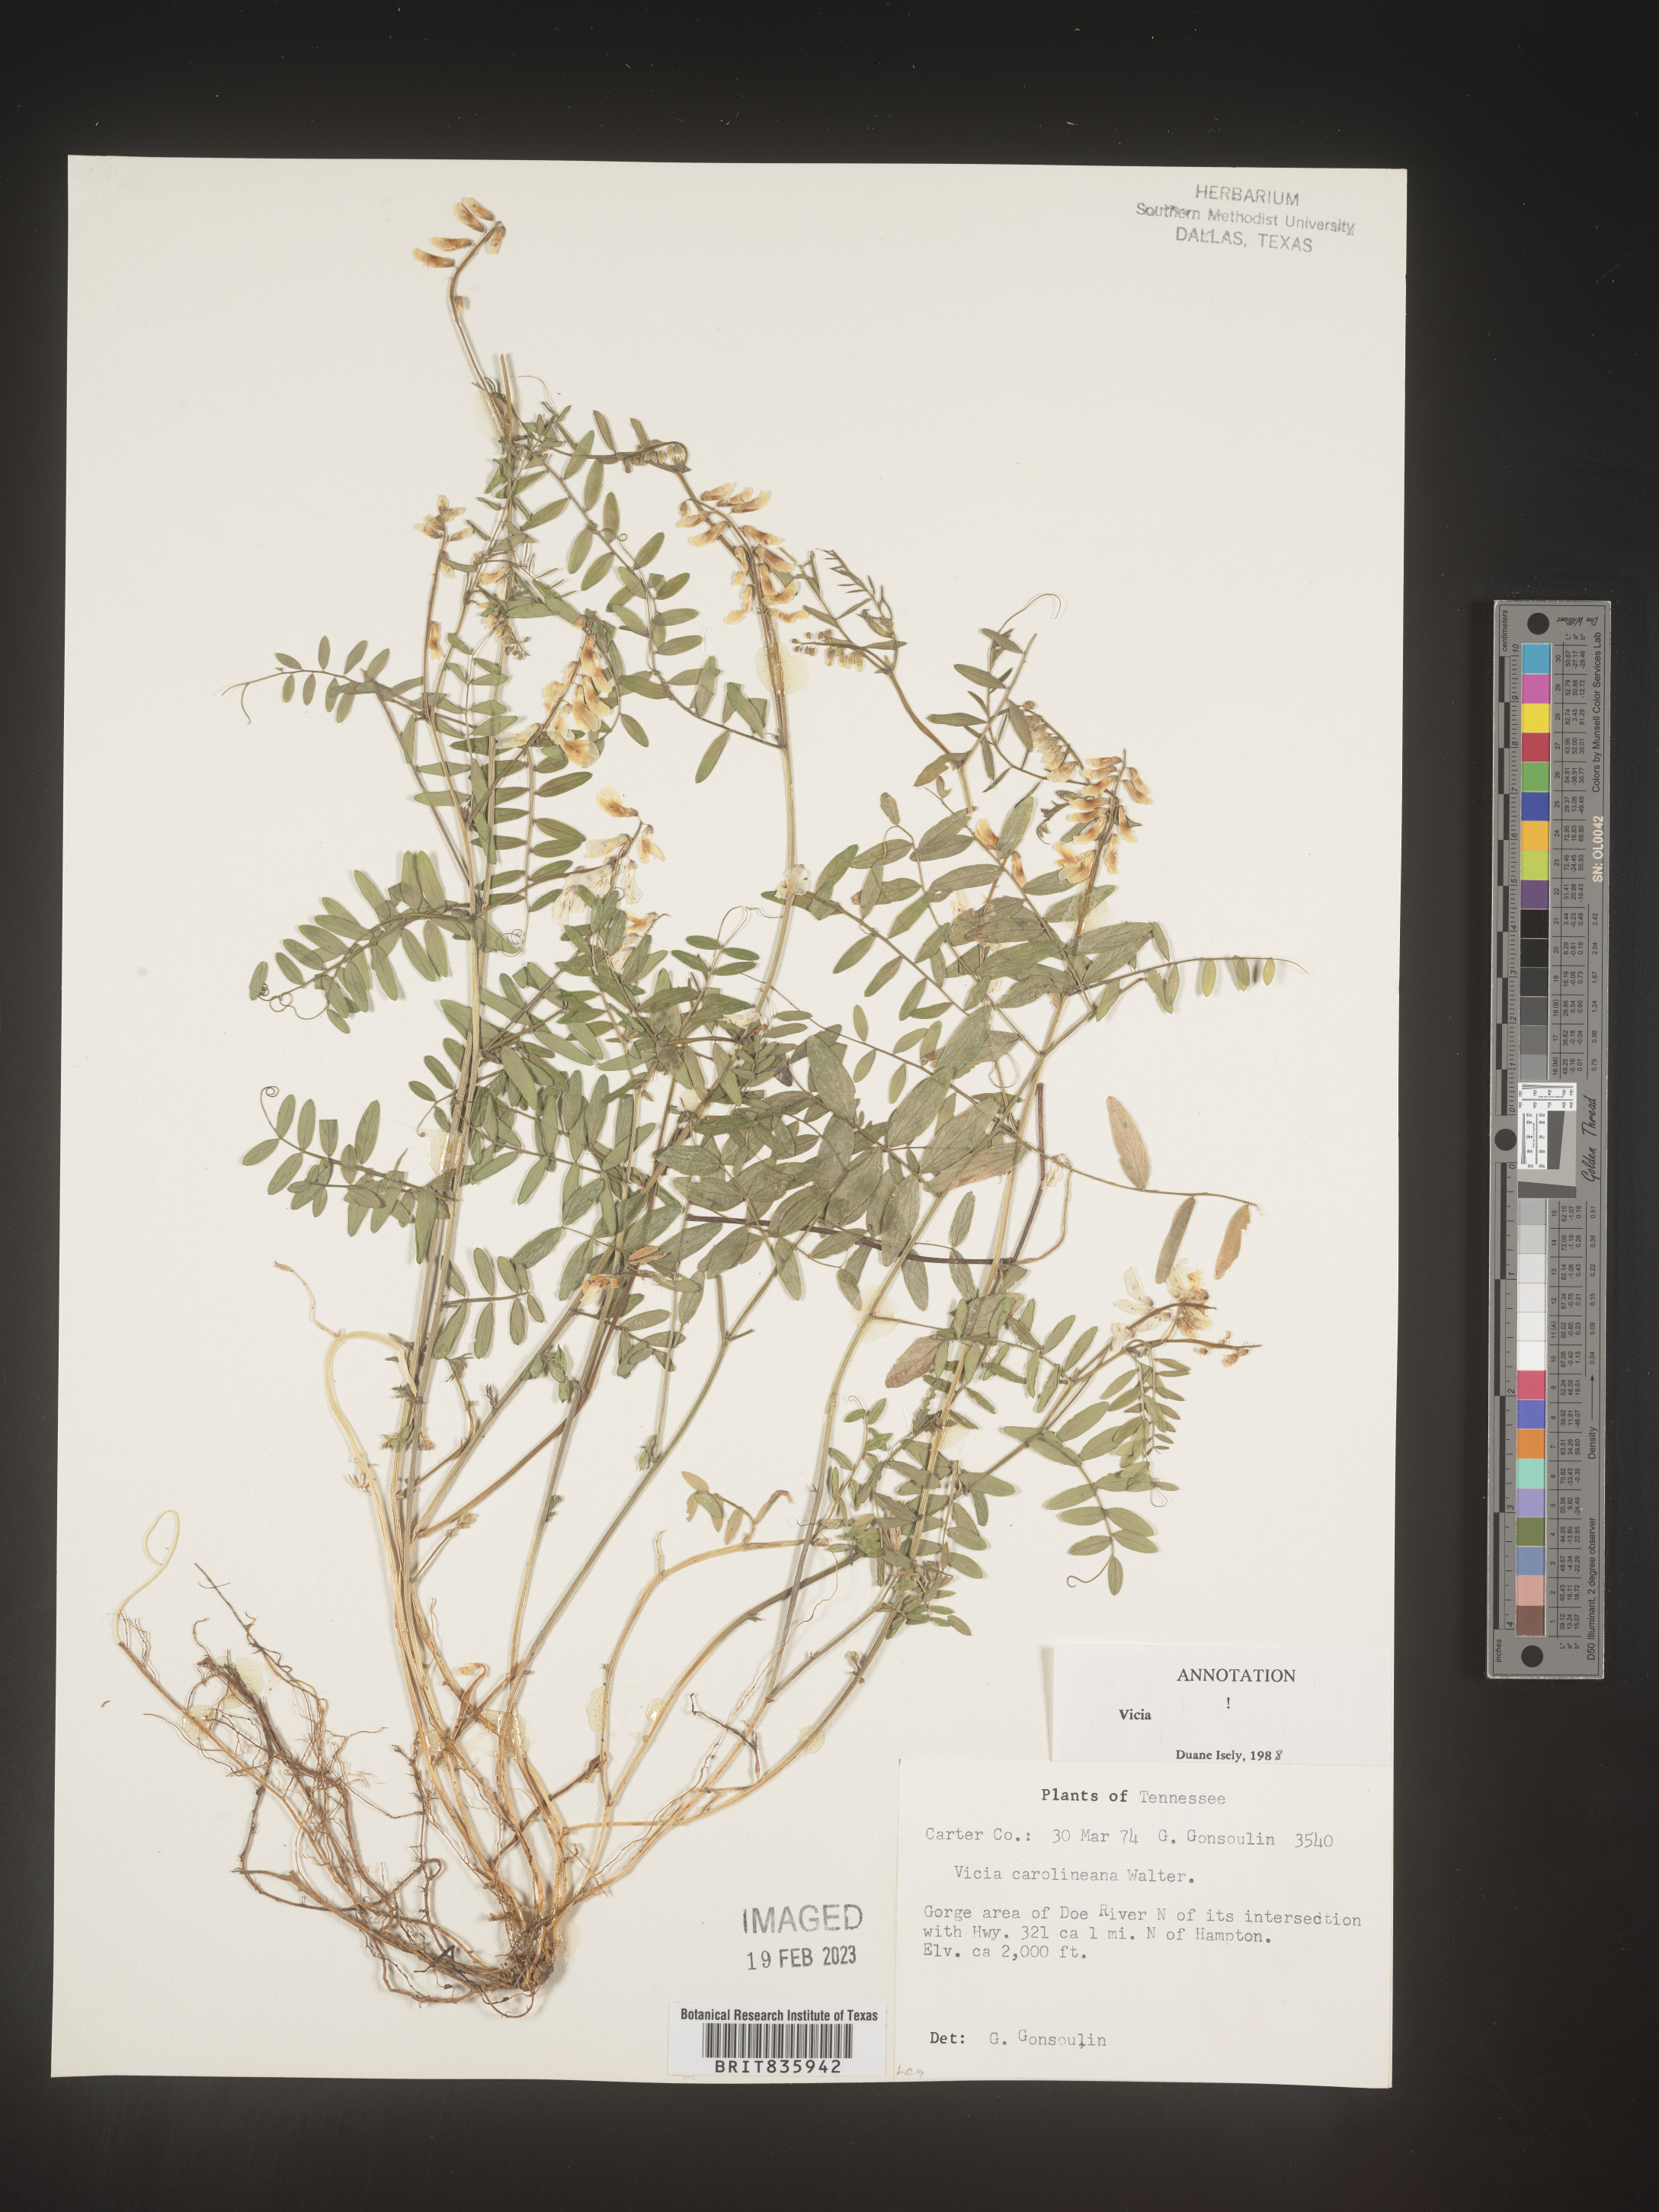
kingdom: Plantae
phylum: Tracheophyta
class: Magnoliopsida
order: Fabales
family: Fabaceae
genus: Vicia
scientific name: Vicia caroliniana
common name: Carolina vetch
